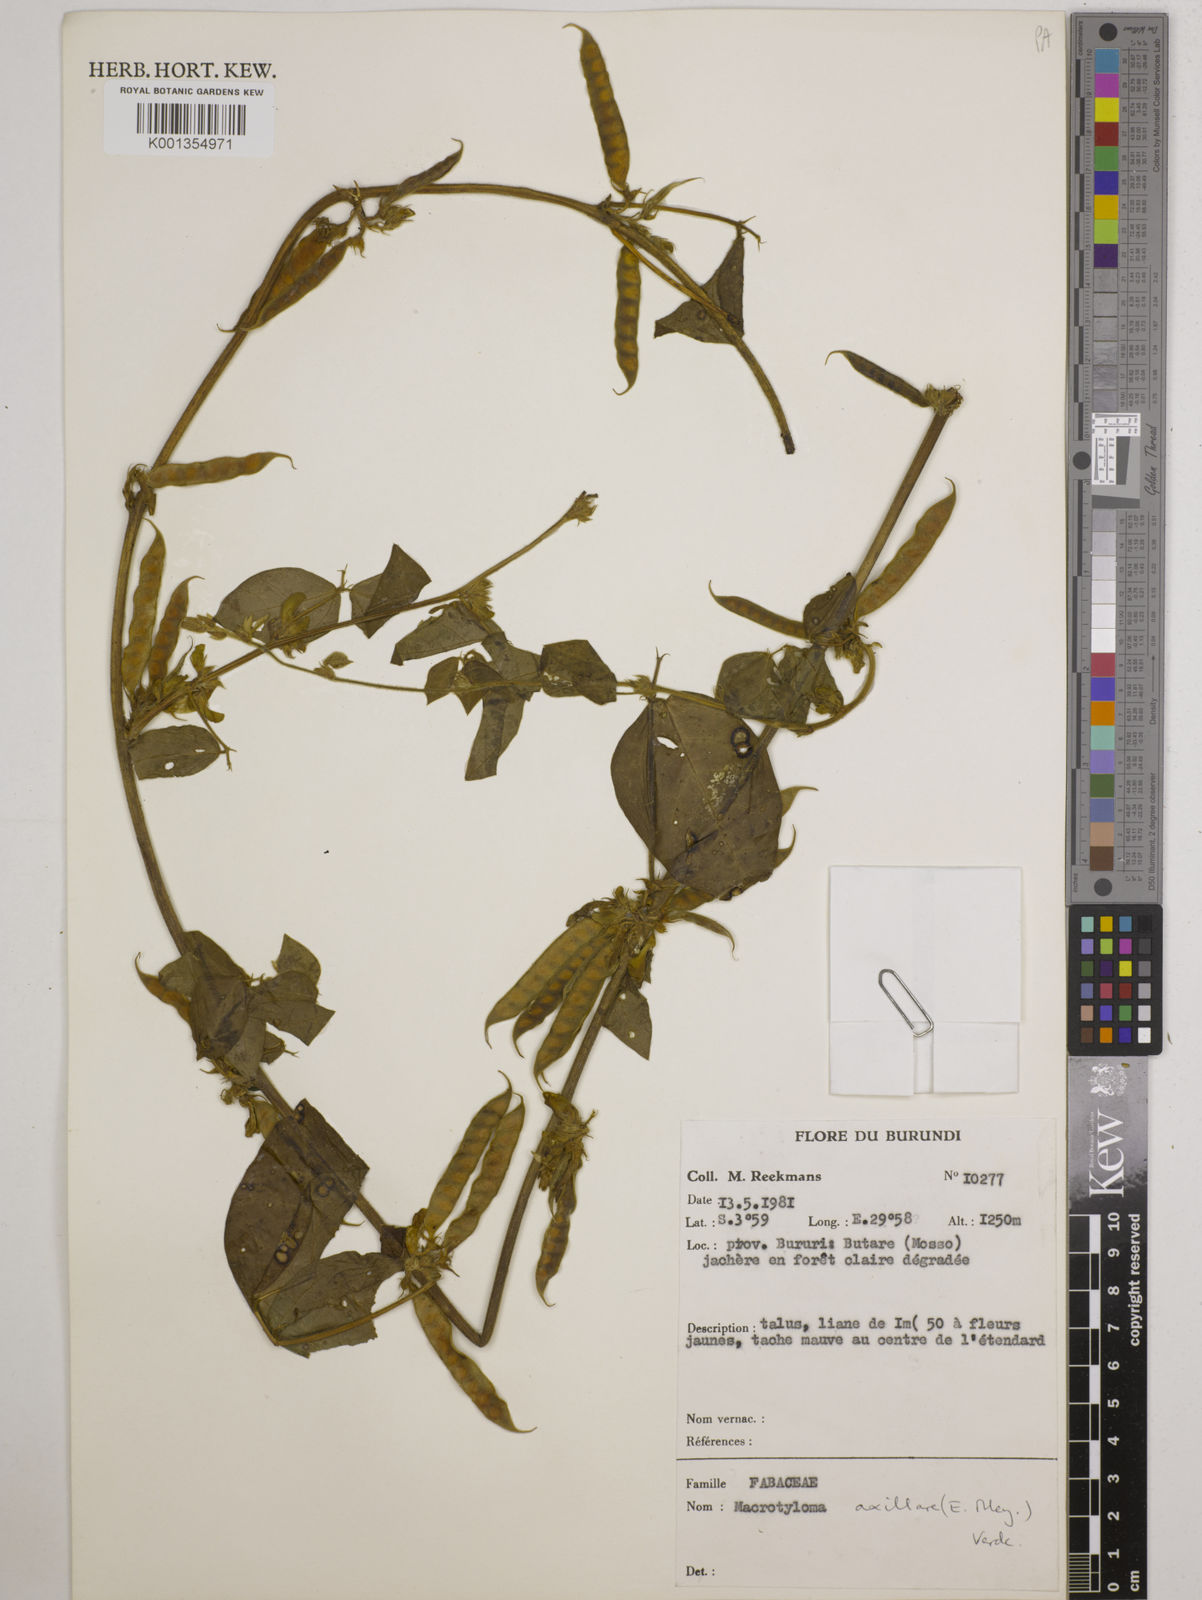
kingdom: Plantae
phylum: Tracheophyta
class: Magnoliopsida
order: Fabales
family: Fabaceae
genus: Macrotyloma
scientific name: Macrotyloma axillare
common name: Perennial horsegram
